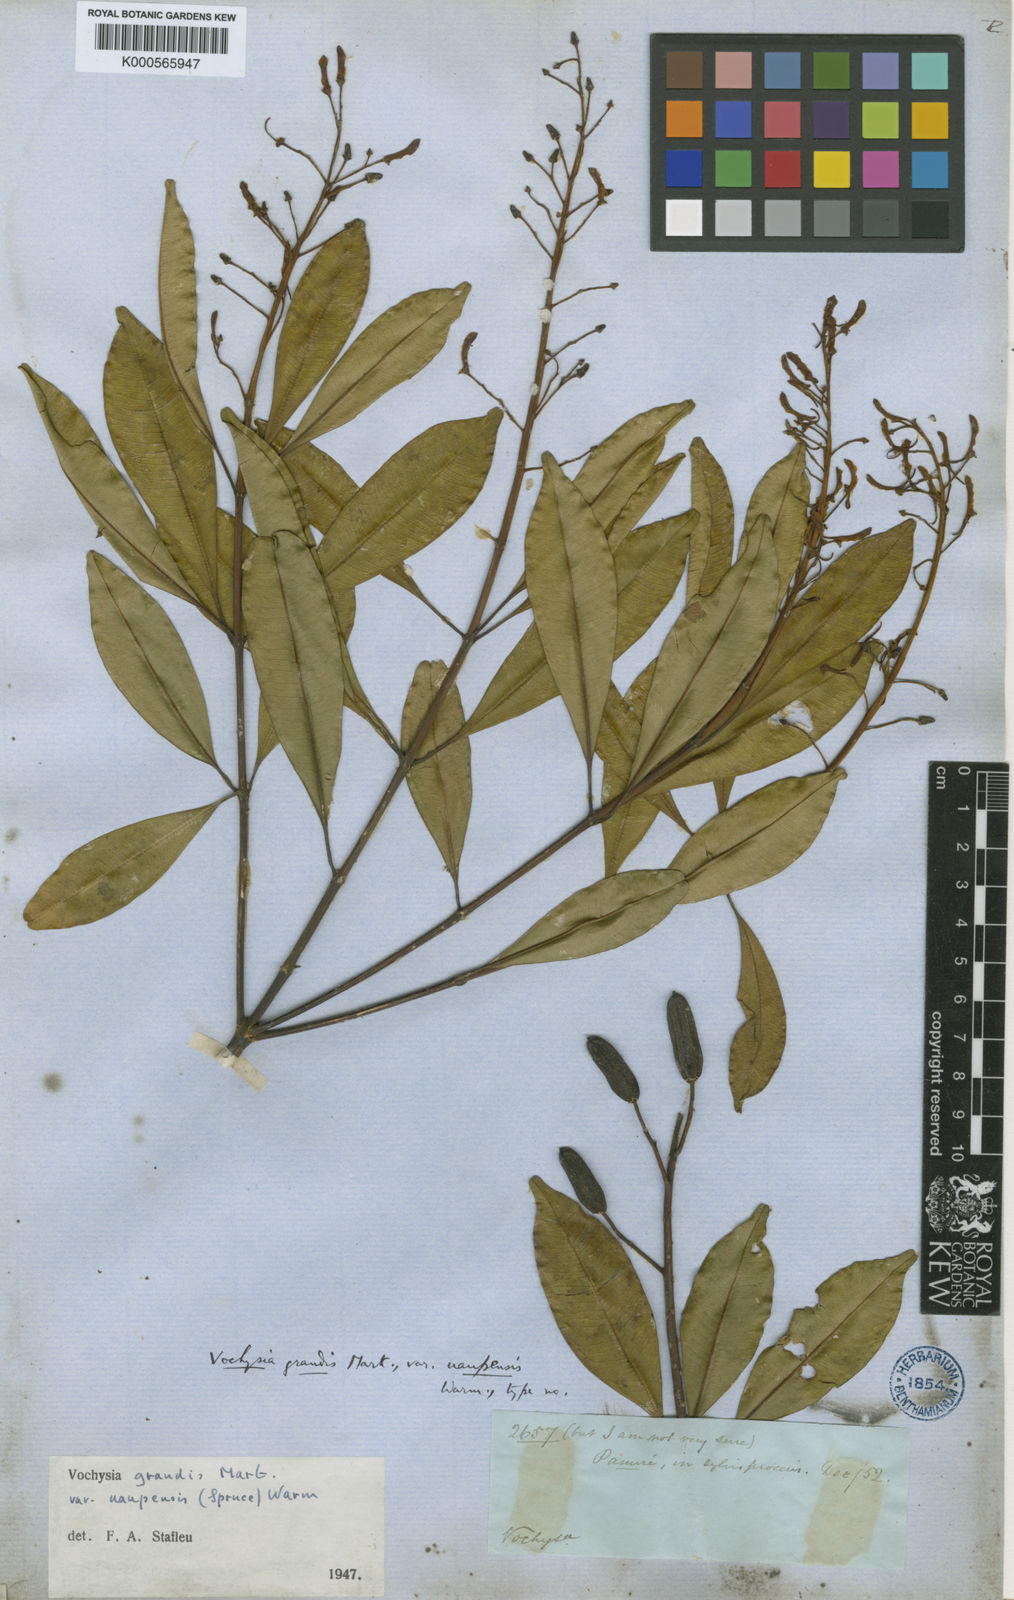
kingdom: Plantae
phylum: Tracheophyta
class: Magnoliopsida
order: Myrtales
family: Vochysiaceae
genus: Vochysia
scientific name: Vochysia grandis
